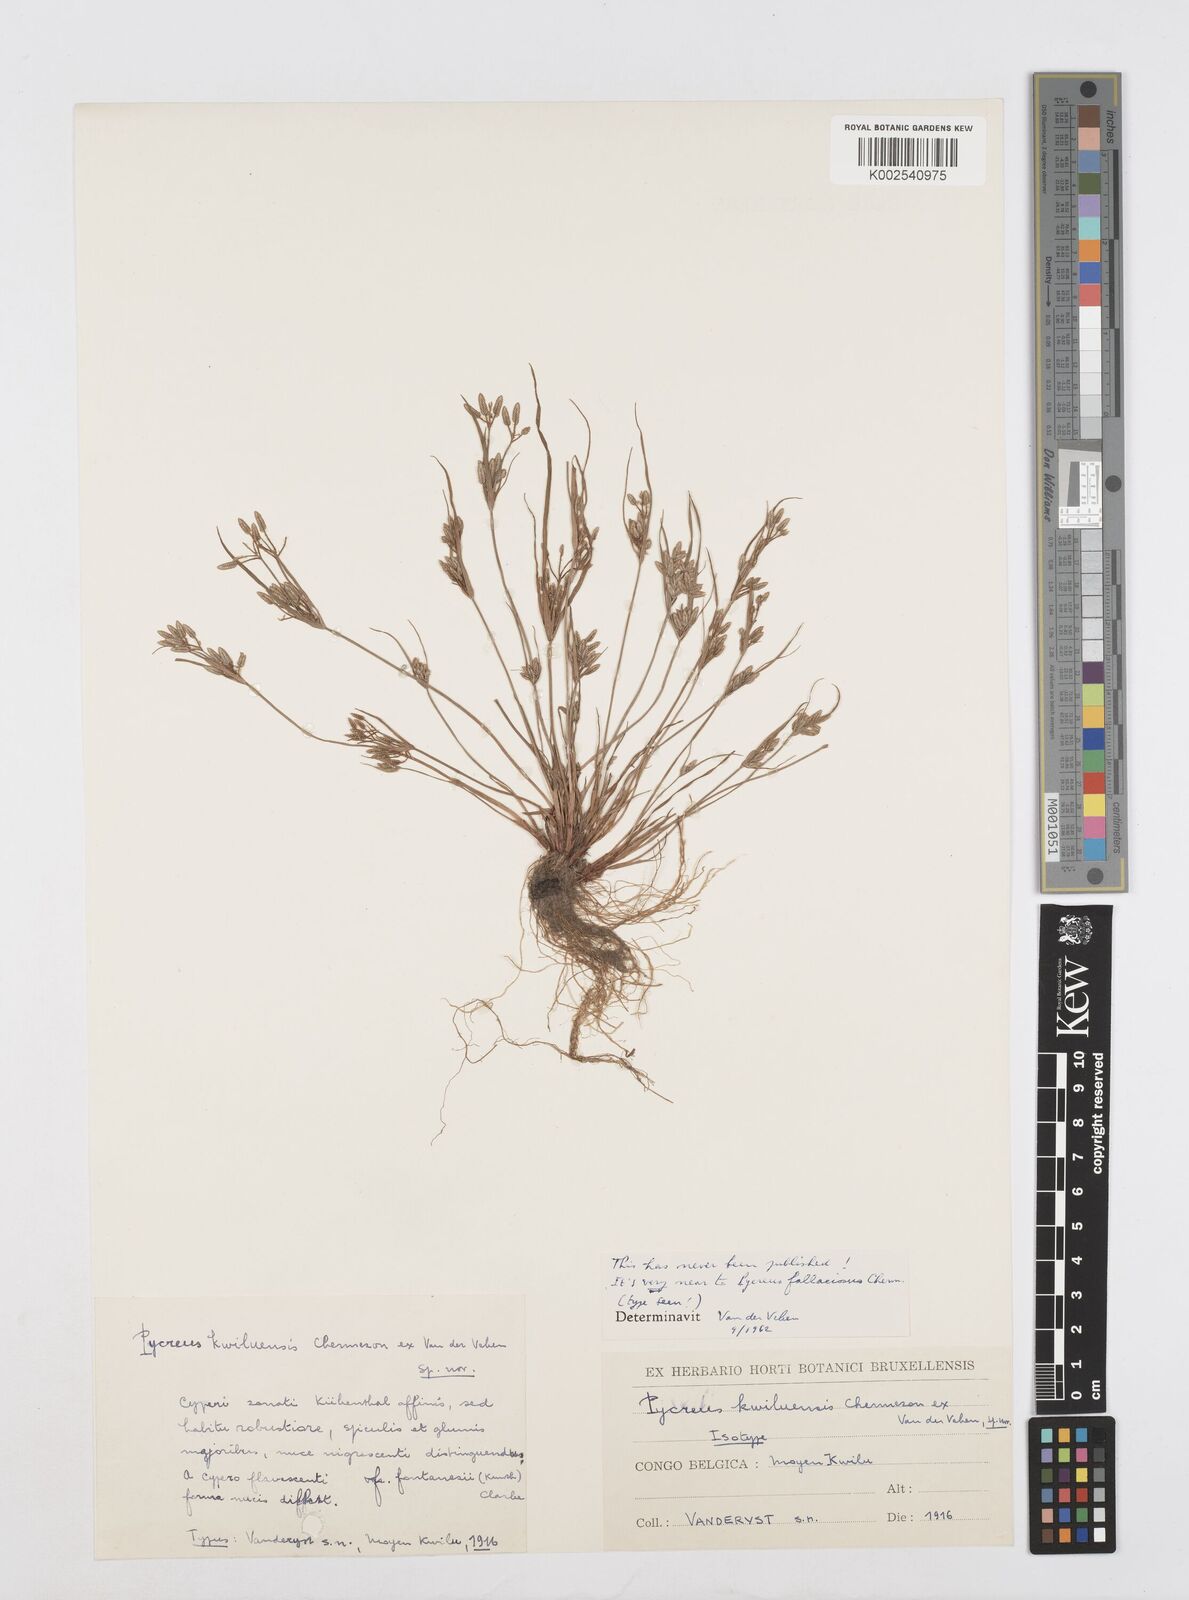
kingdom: Plantae
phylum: Tracheophyta
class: Liliopsida
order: Poales
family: Cyperaceae
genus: Cyperus
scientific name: Cyperus flavescens
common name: Yellow galingale
